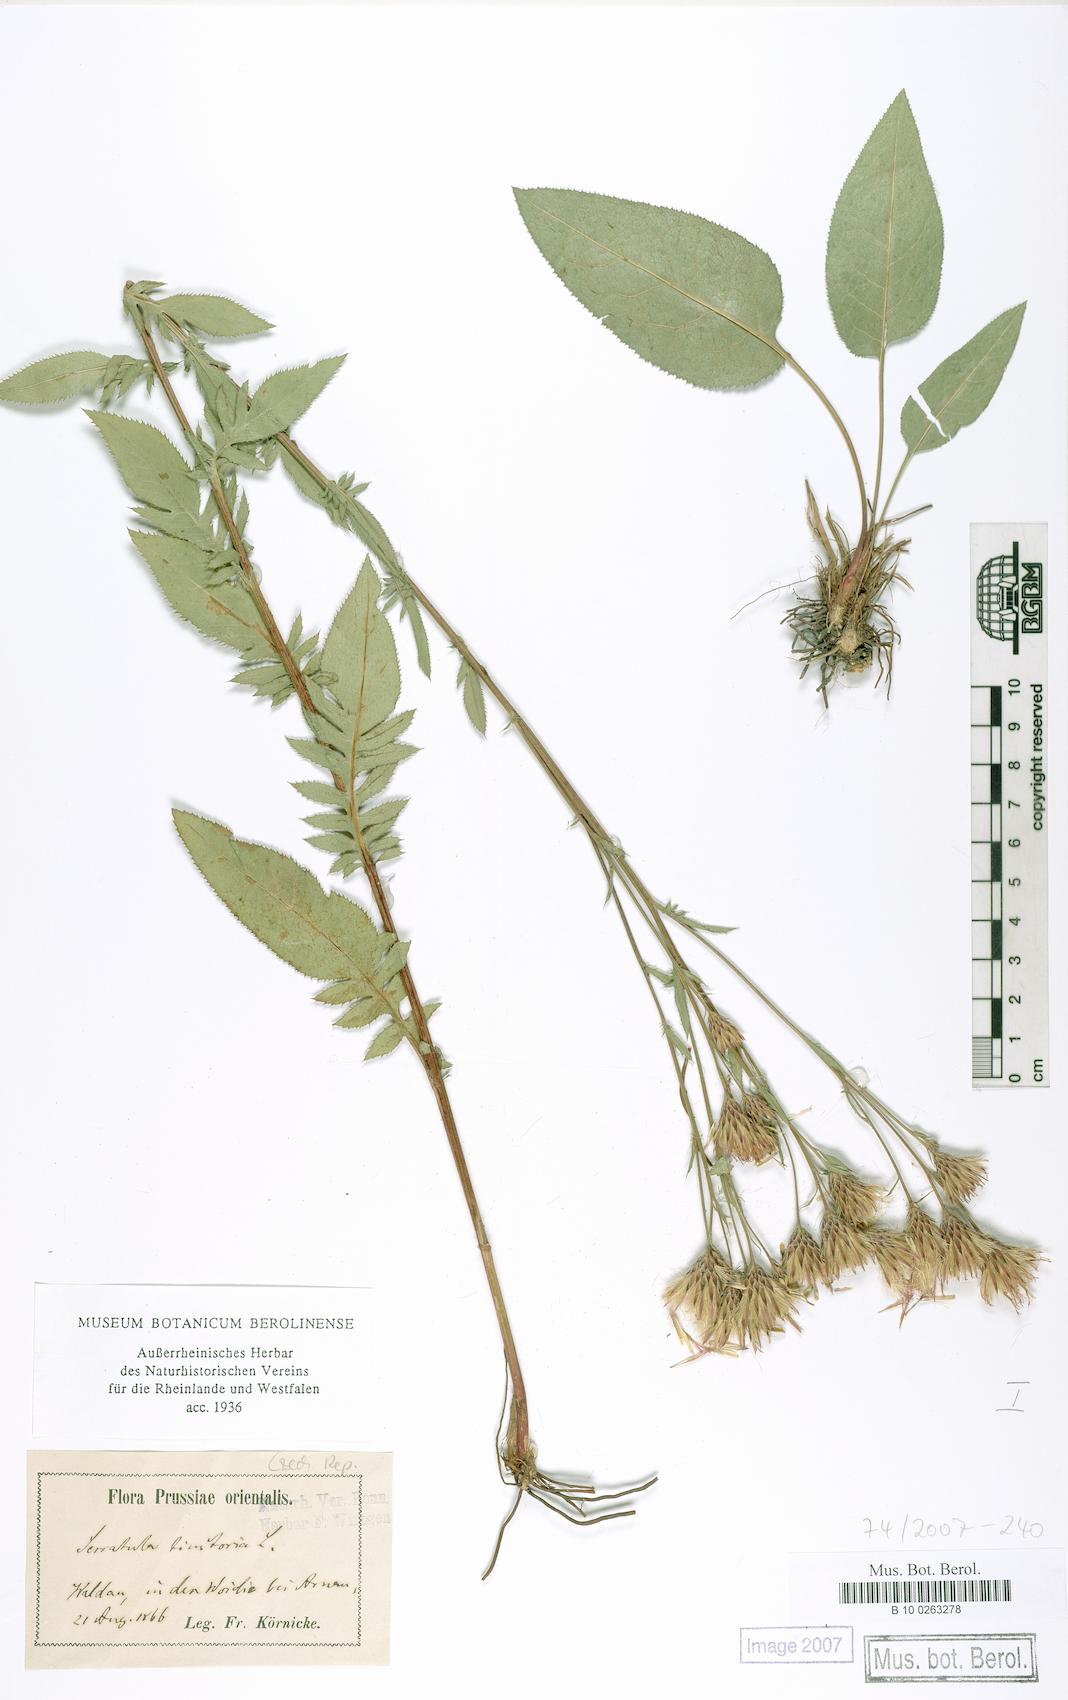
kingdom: Plantae
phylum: Tracheophyta
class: Magnoliopsida
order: Asterales
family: Asteraceae
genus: Serratula
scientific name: Serratula tinctoria
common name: Saw-wort
